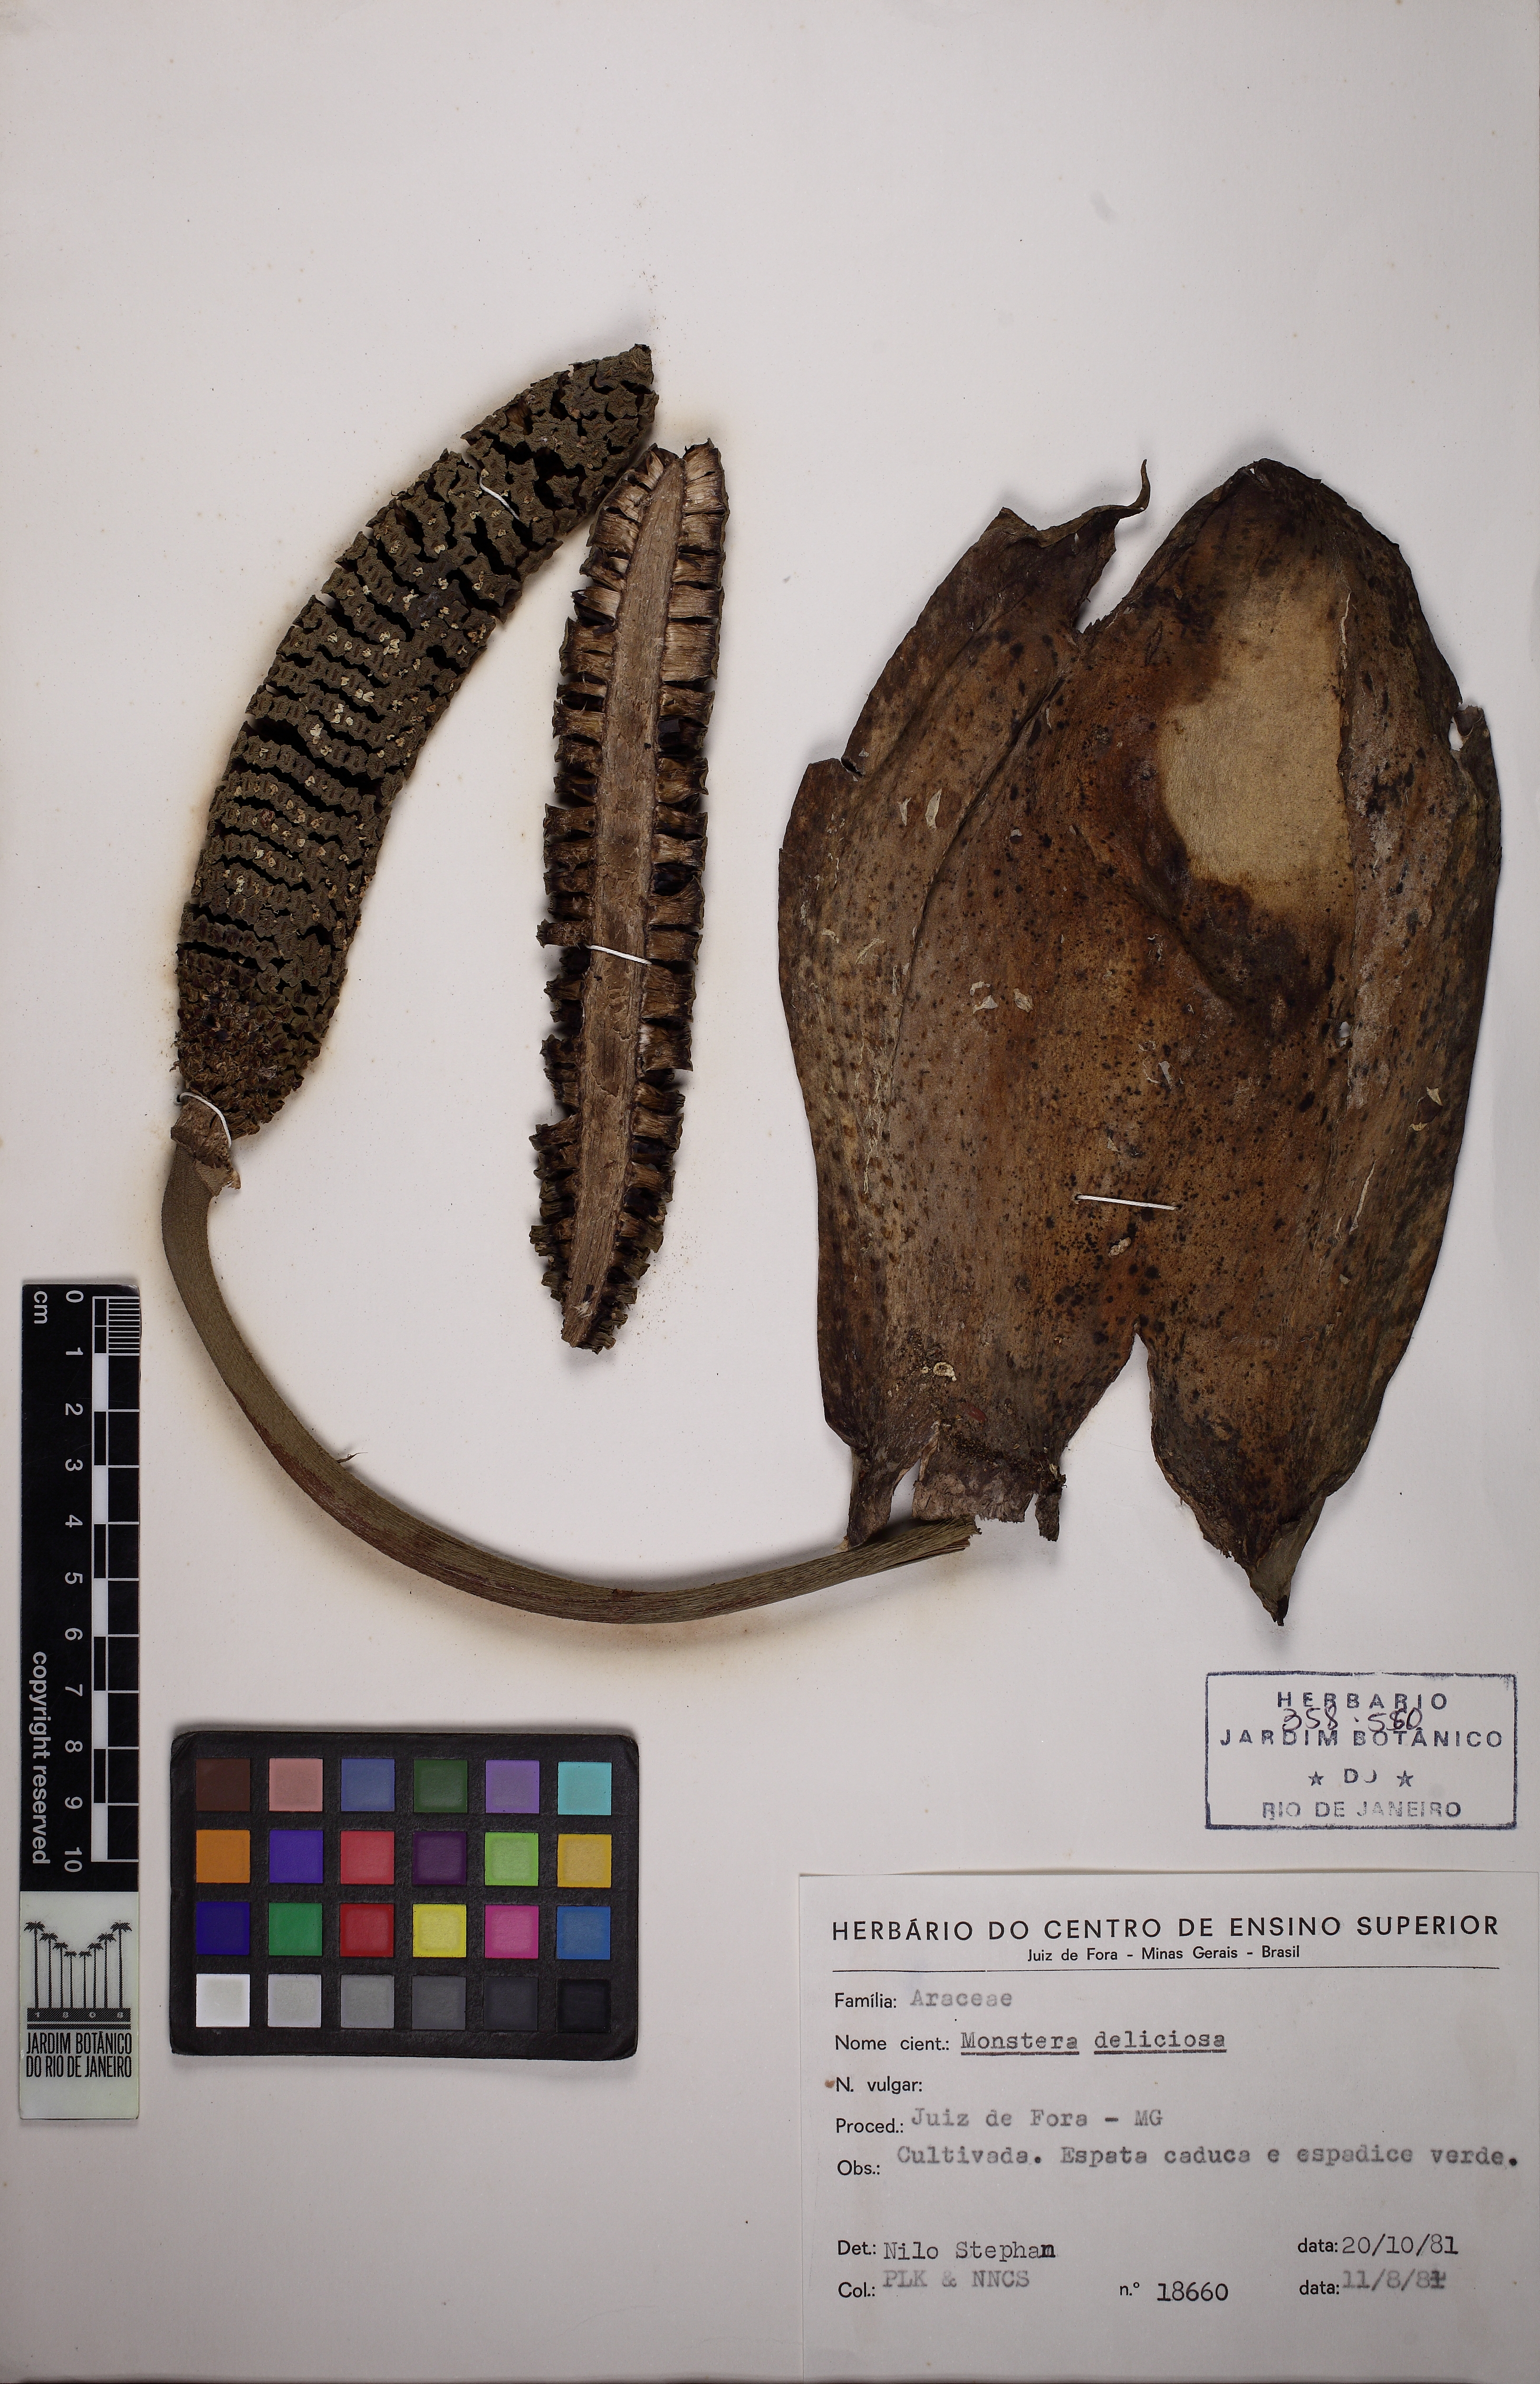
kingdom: Plantae
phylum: Tracheophyta
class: Liliopsida
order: Alismatales
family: Araceae
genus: Monstera
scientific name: Monstera deliciosa
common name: Cut-leaf-philodendron
